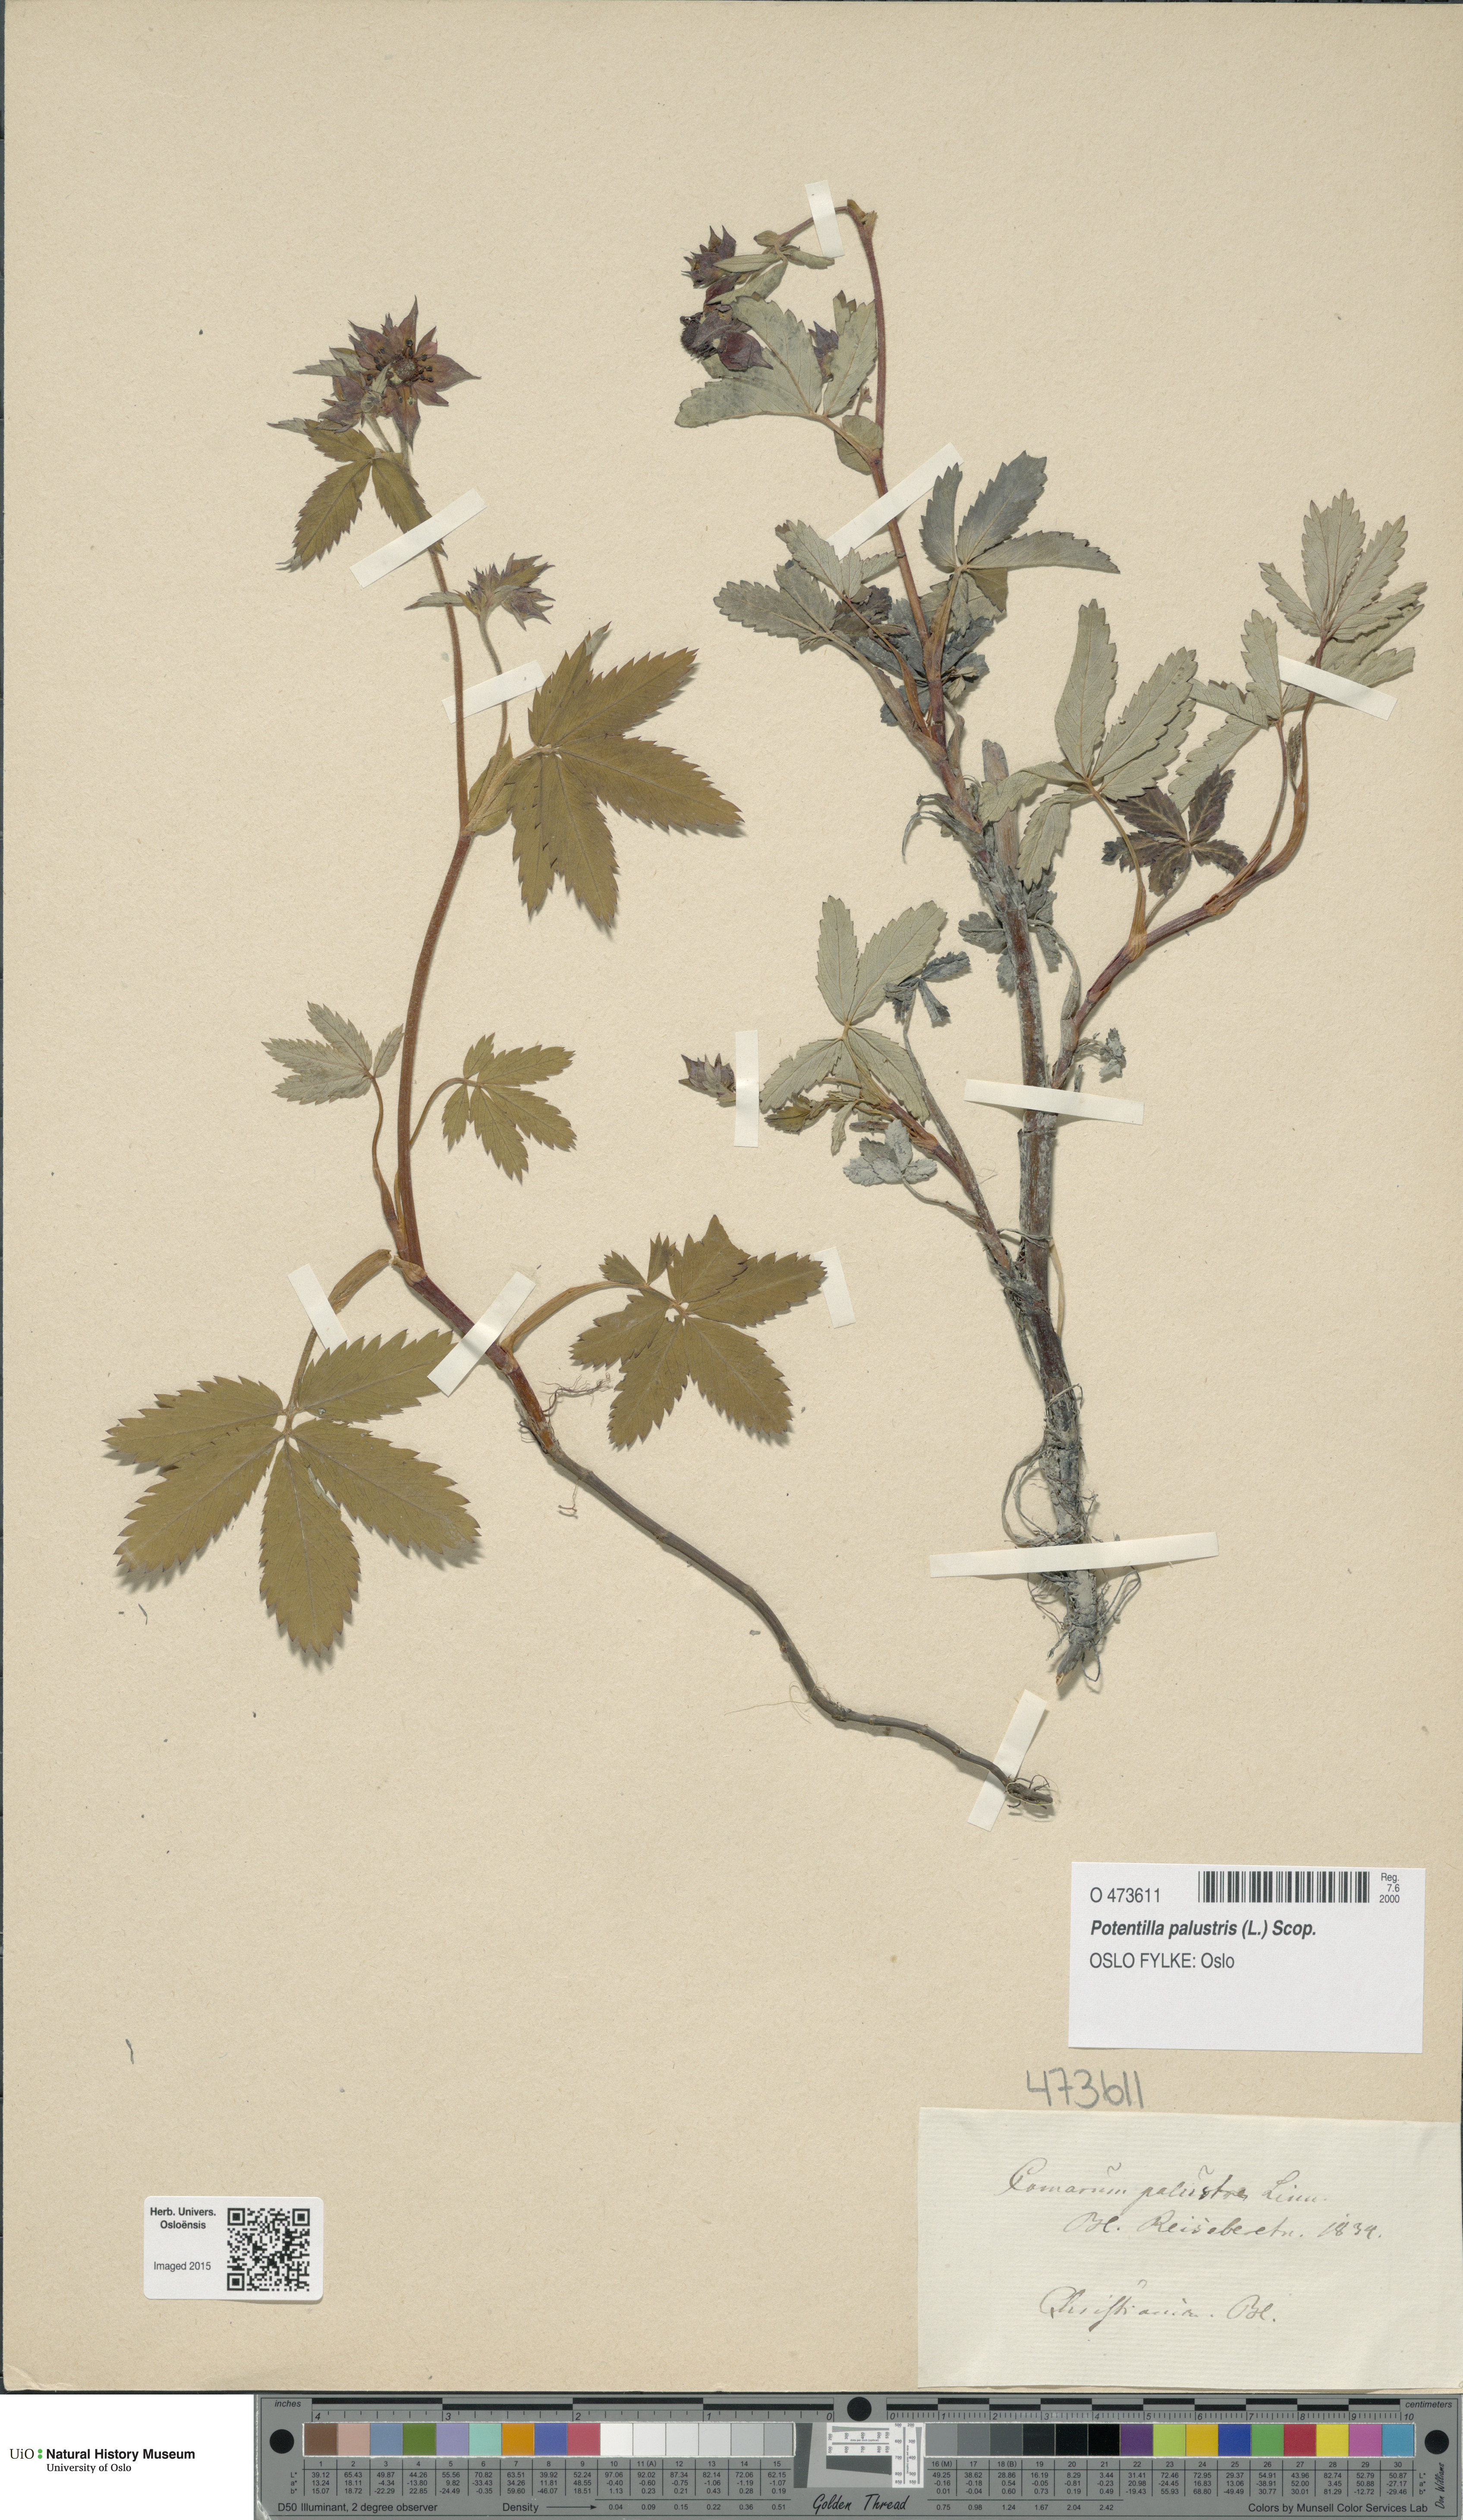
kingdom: Plantae
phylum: Tracheophyta
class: Magnoliopsida
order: Rosales
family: Rosaceae
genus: Comarum
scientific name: Comarum palustre
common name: Marsh cinquefoil
